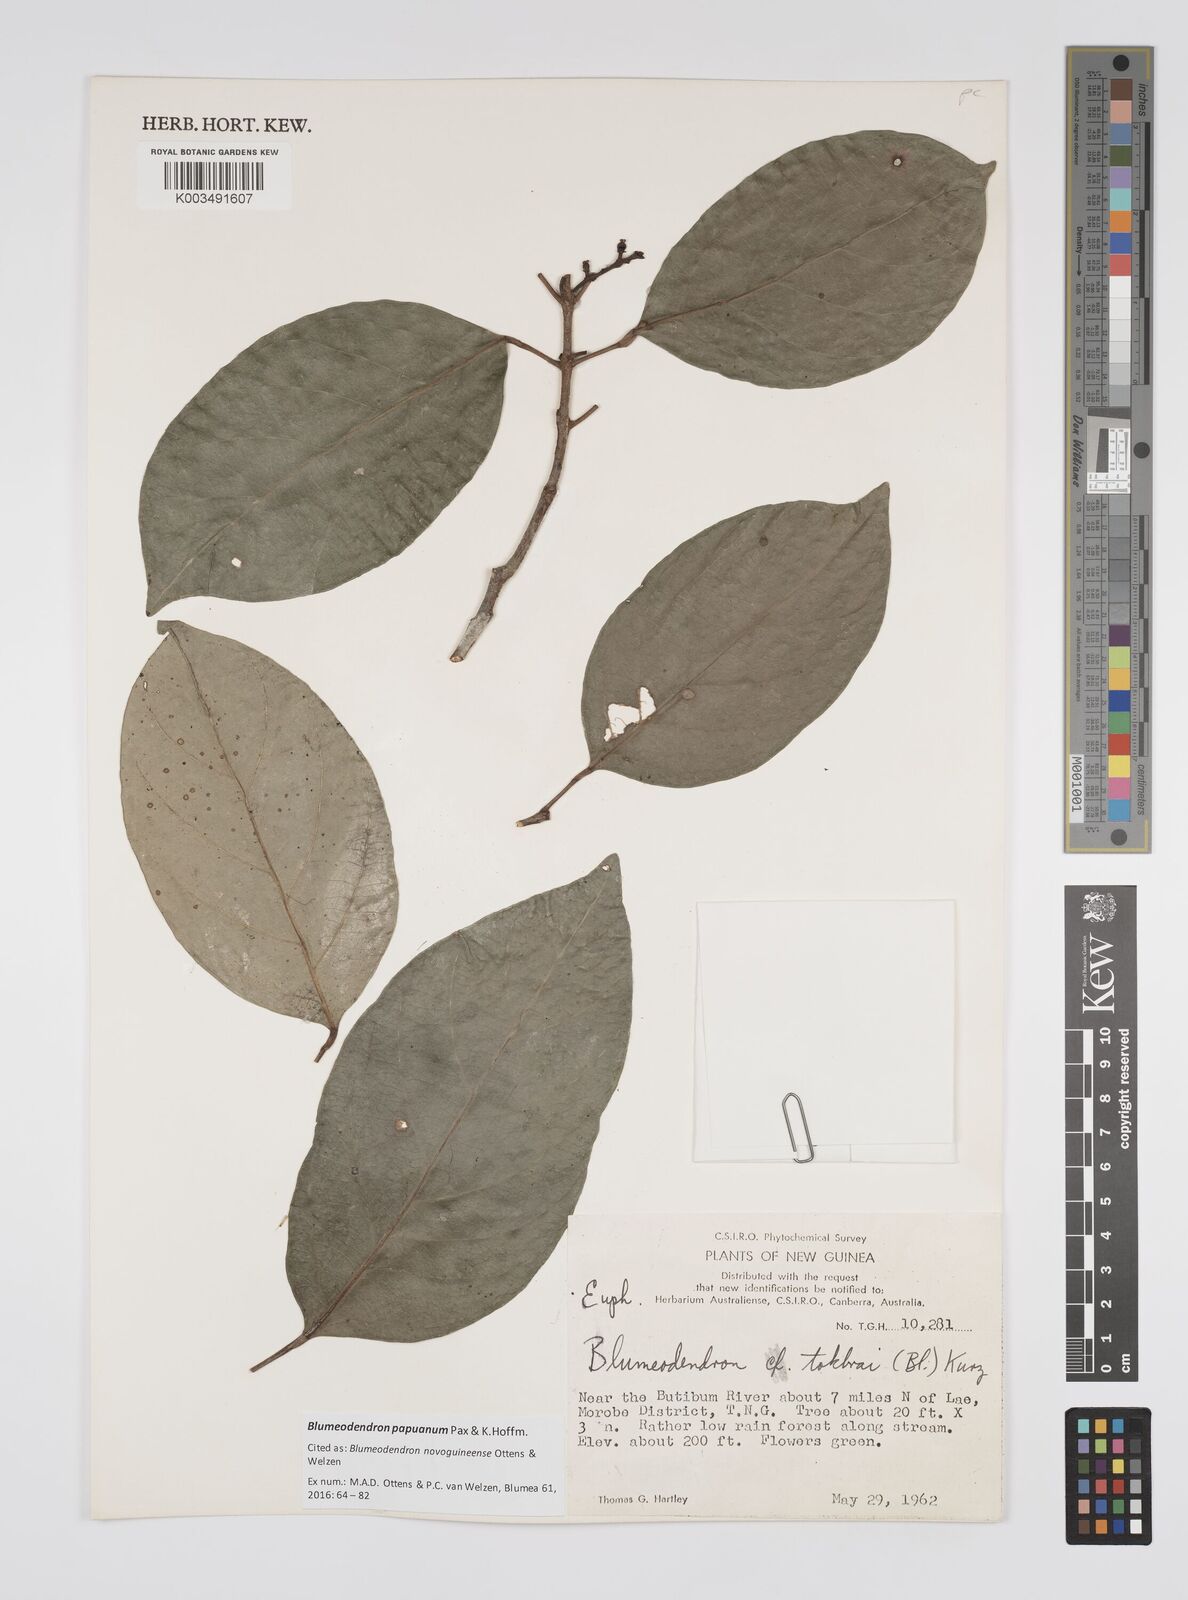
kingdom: Plantae
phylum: Tracheophyta
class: Magnoliopsida
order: Malpighiales
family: Euphorbiaceae
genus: Blumeodendron
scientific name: Blumeodendron papuanum
